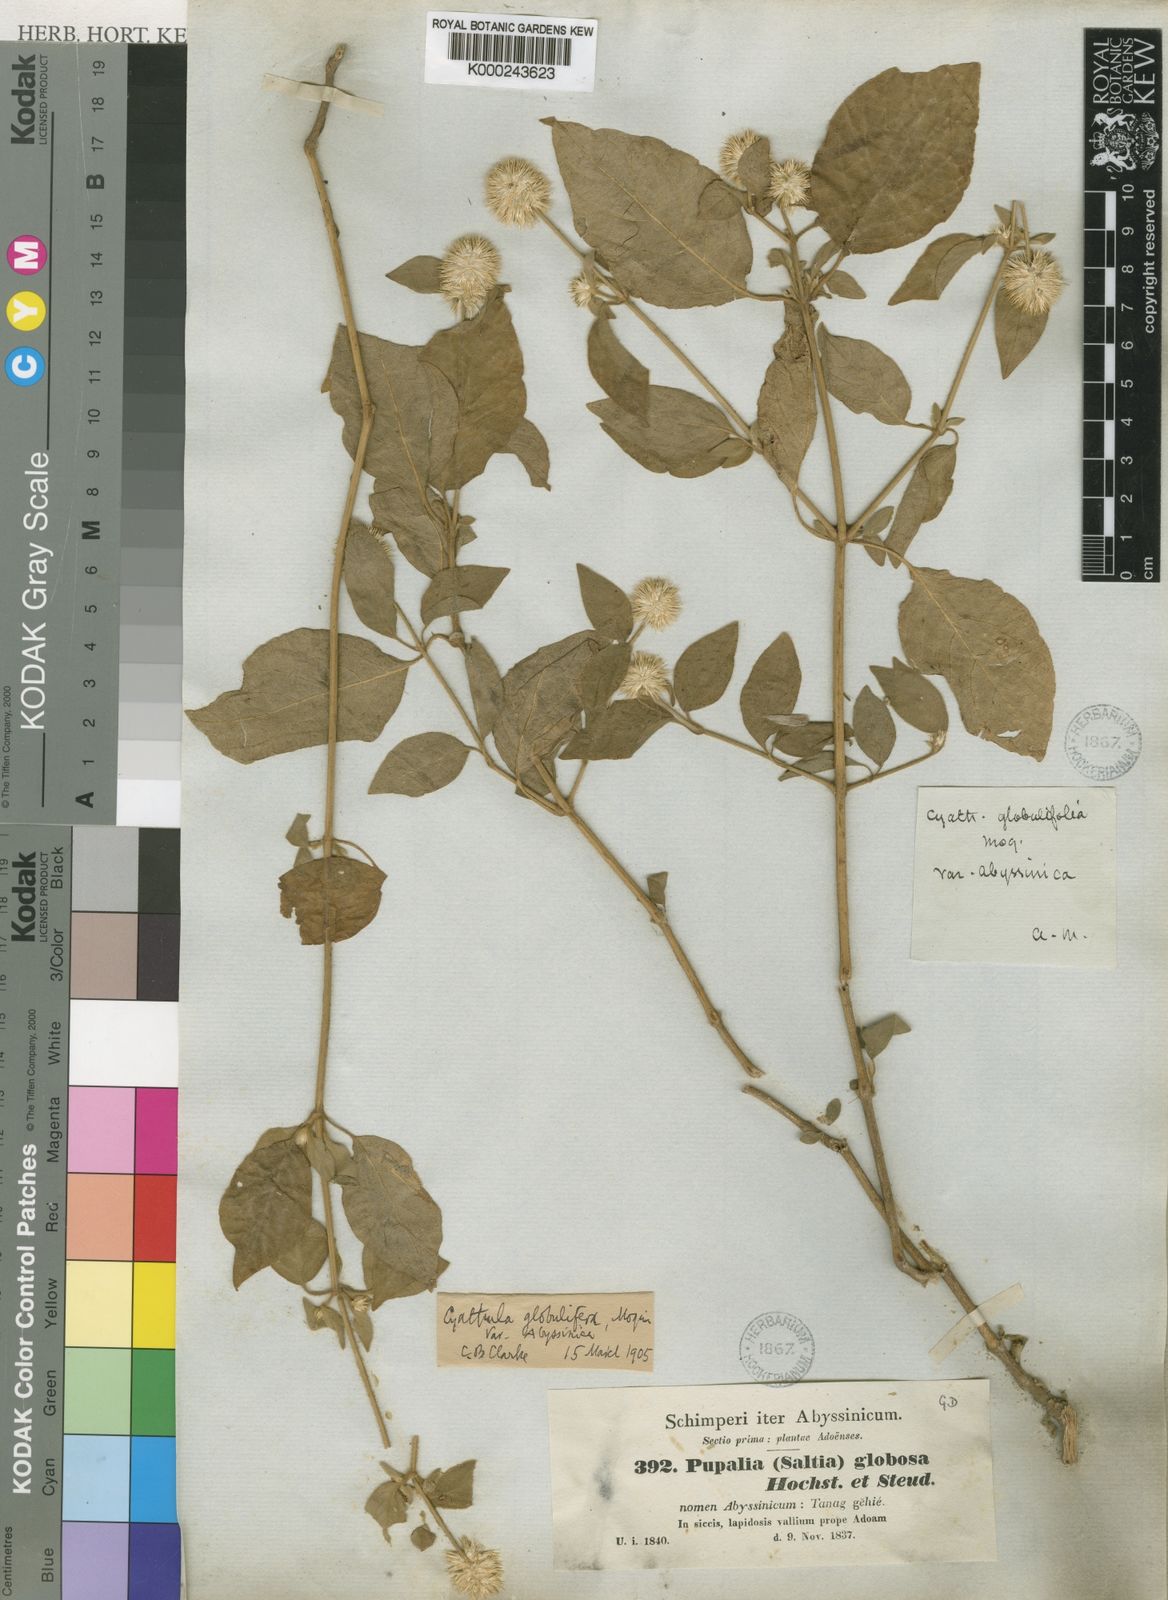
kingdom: Plantae
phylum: Tracheophyta
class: Magnoliopsida
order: Caryophyllales
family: Amaranthaceae
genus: Cyathula
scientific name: Cyathula uncinulata
